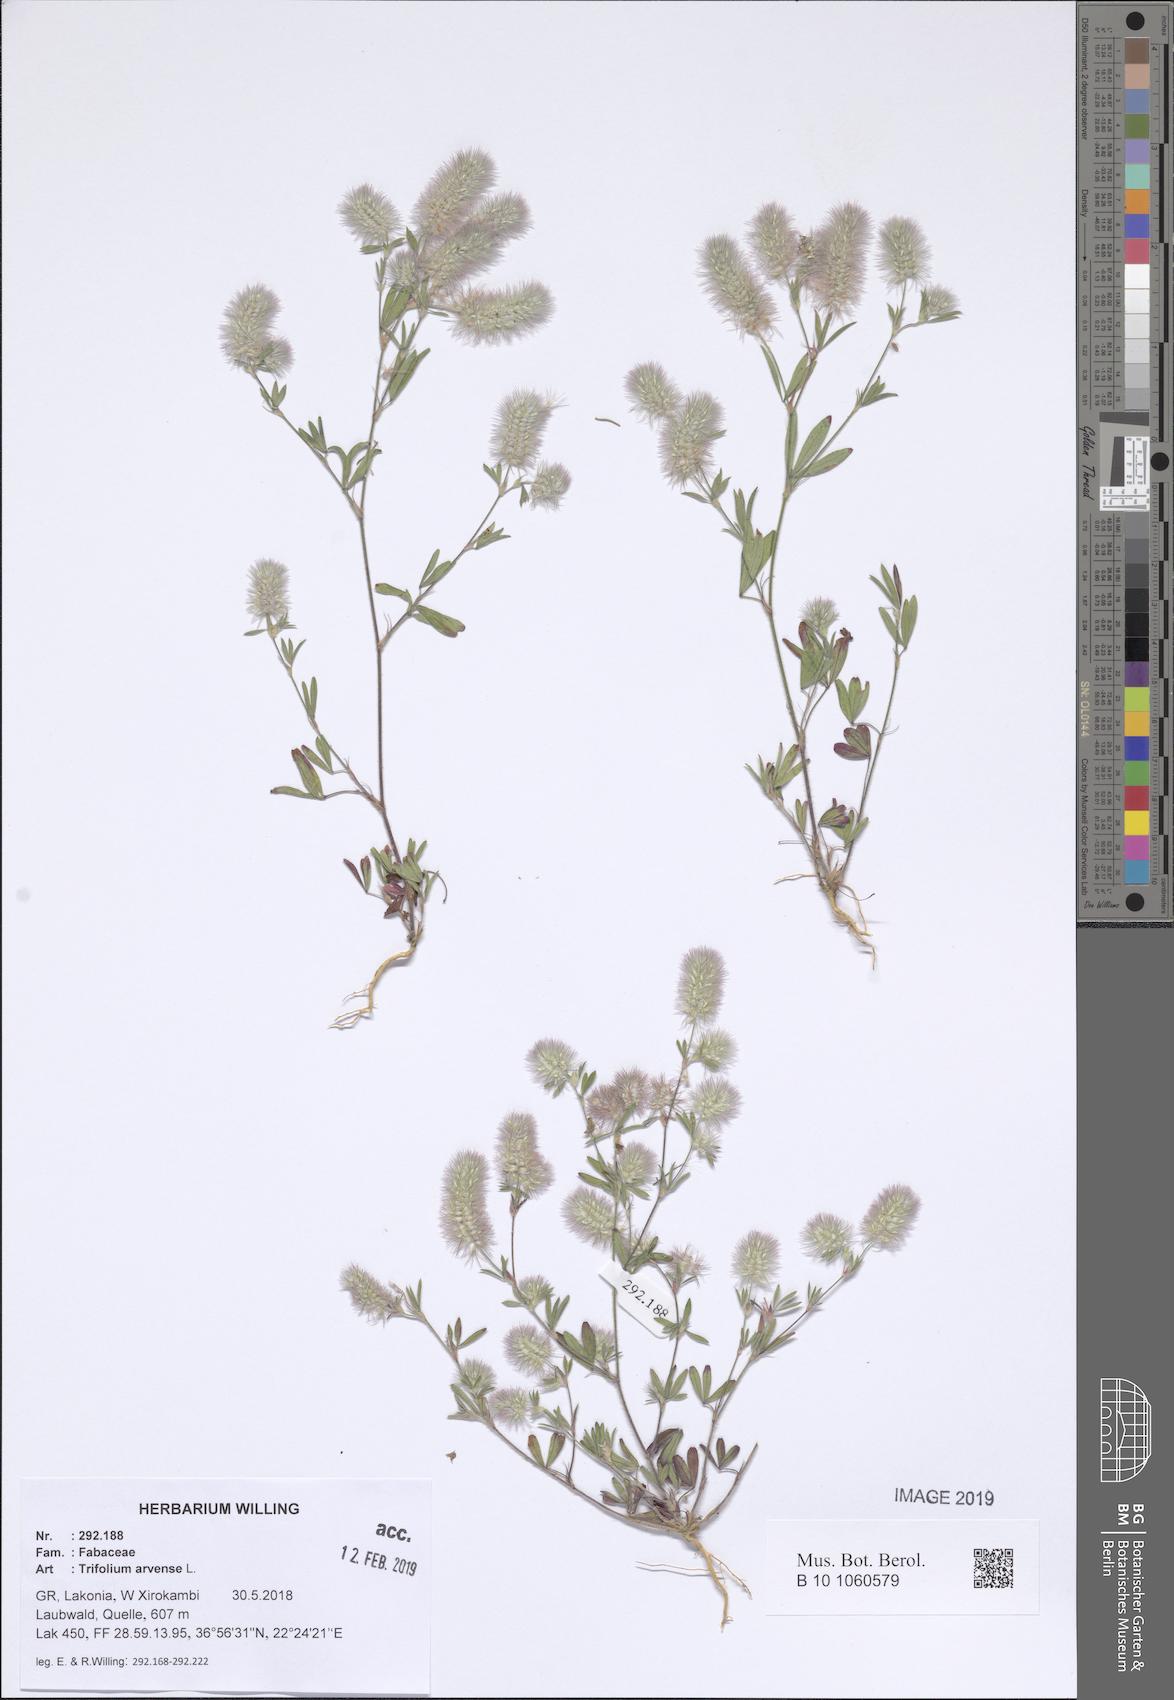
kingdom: Plantae
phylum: Tracheophyta
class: Magnoliopsida
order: Fabales
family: Fabaceae
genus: Trifolium
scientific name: Trifolium arvense
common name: Hare's-foot clover
